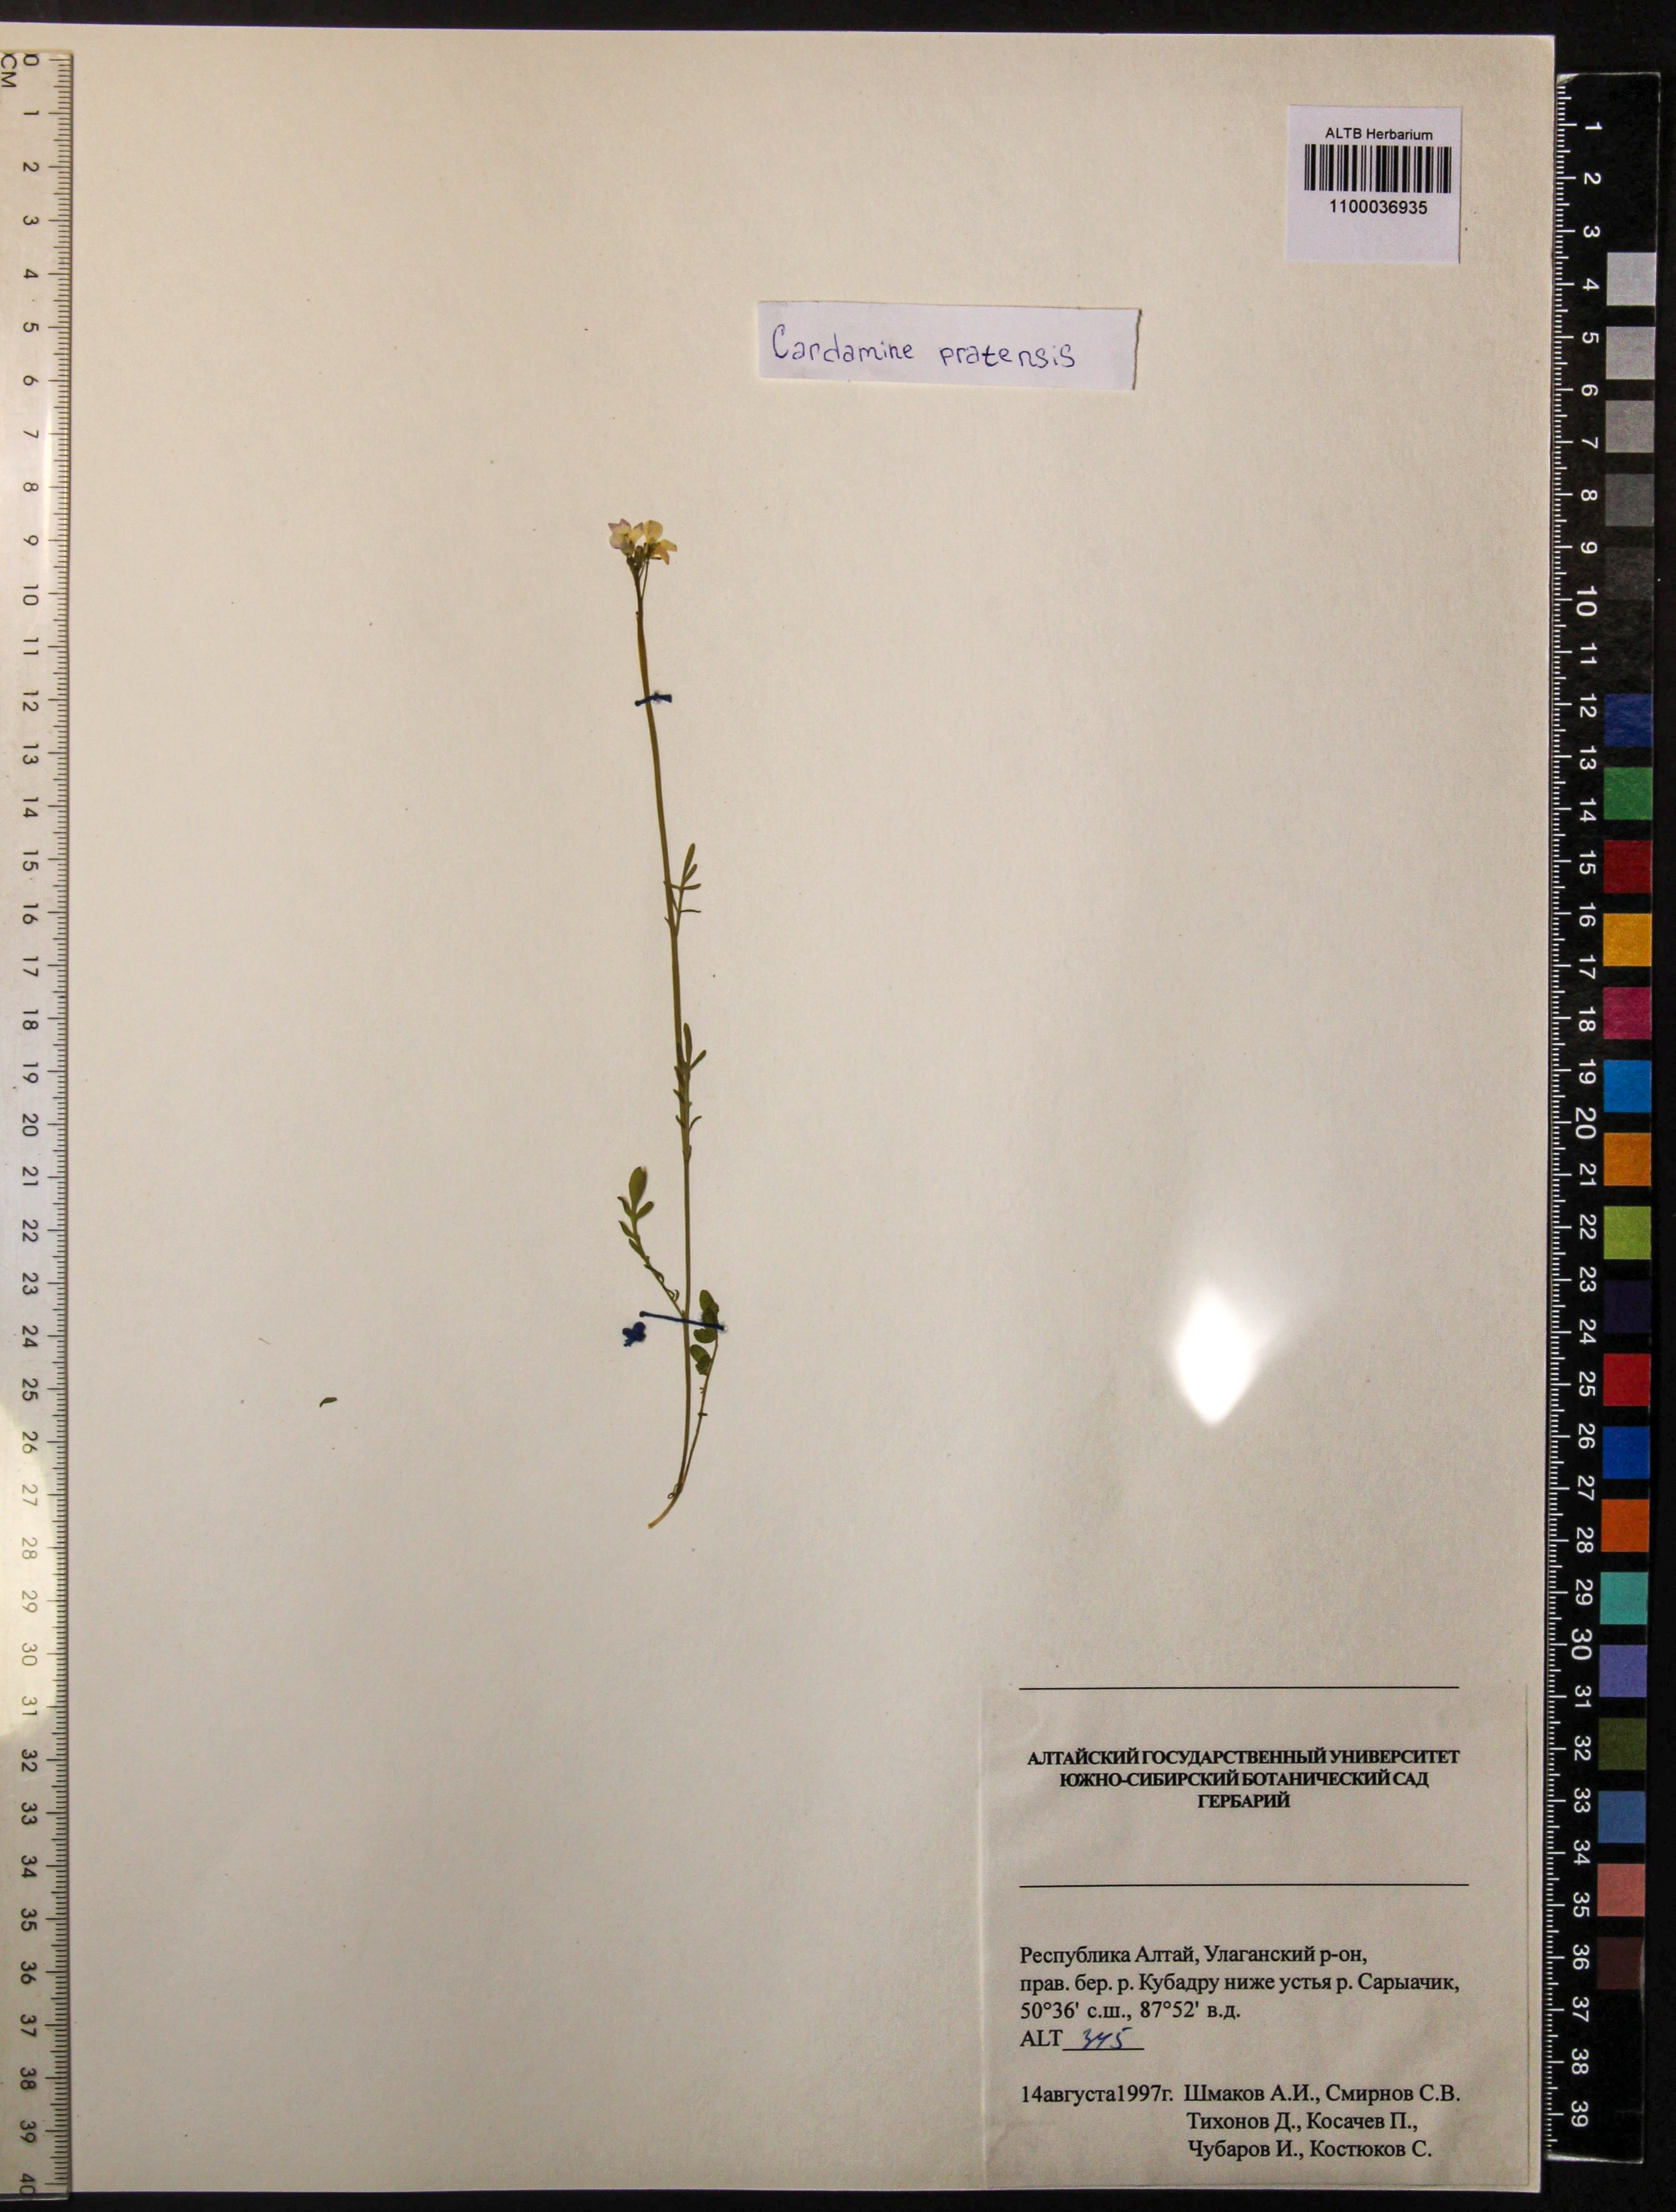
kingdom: Plantae
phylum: Tracheophyta
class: Magnoliopsida
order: Brassicales
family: Brassicaceae
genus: Cardamine
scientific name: Cardamine pratensis
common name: Cuckoo flower
